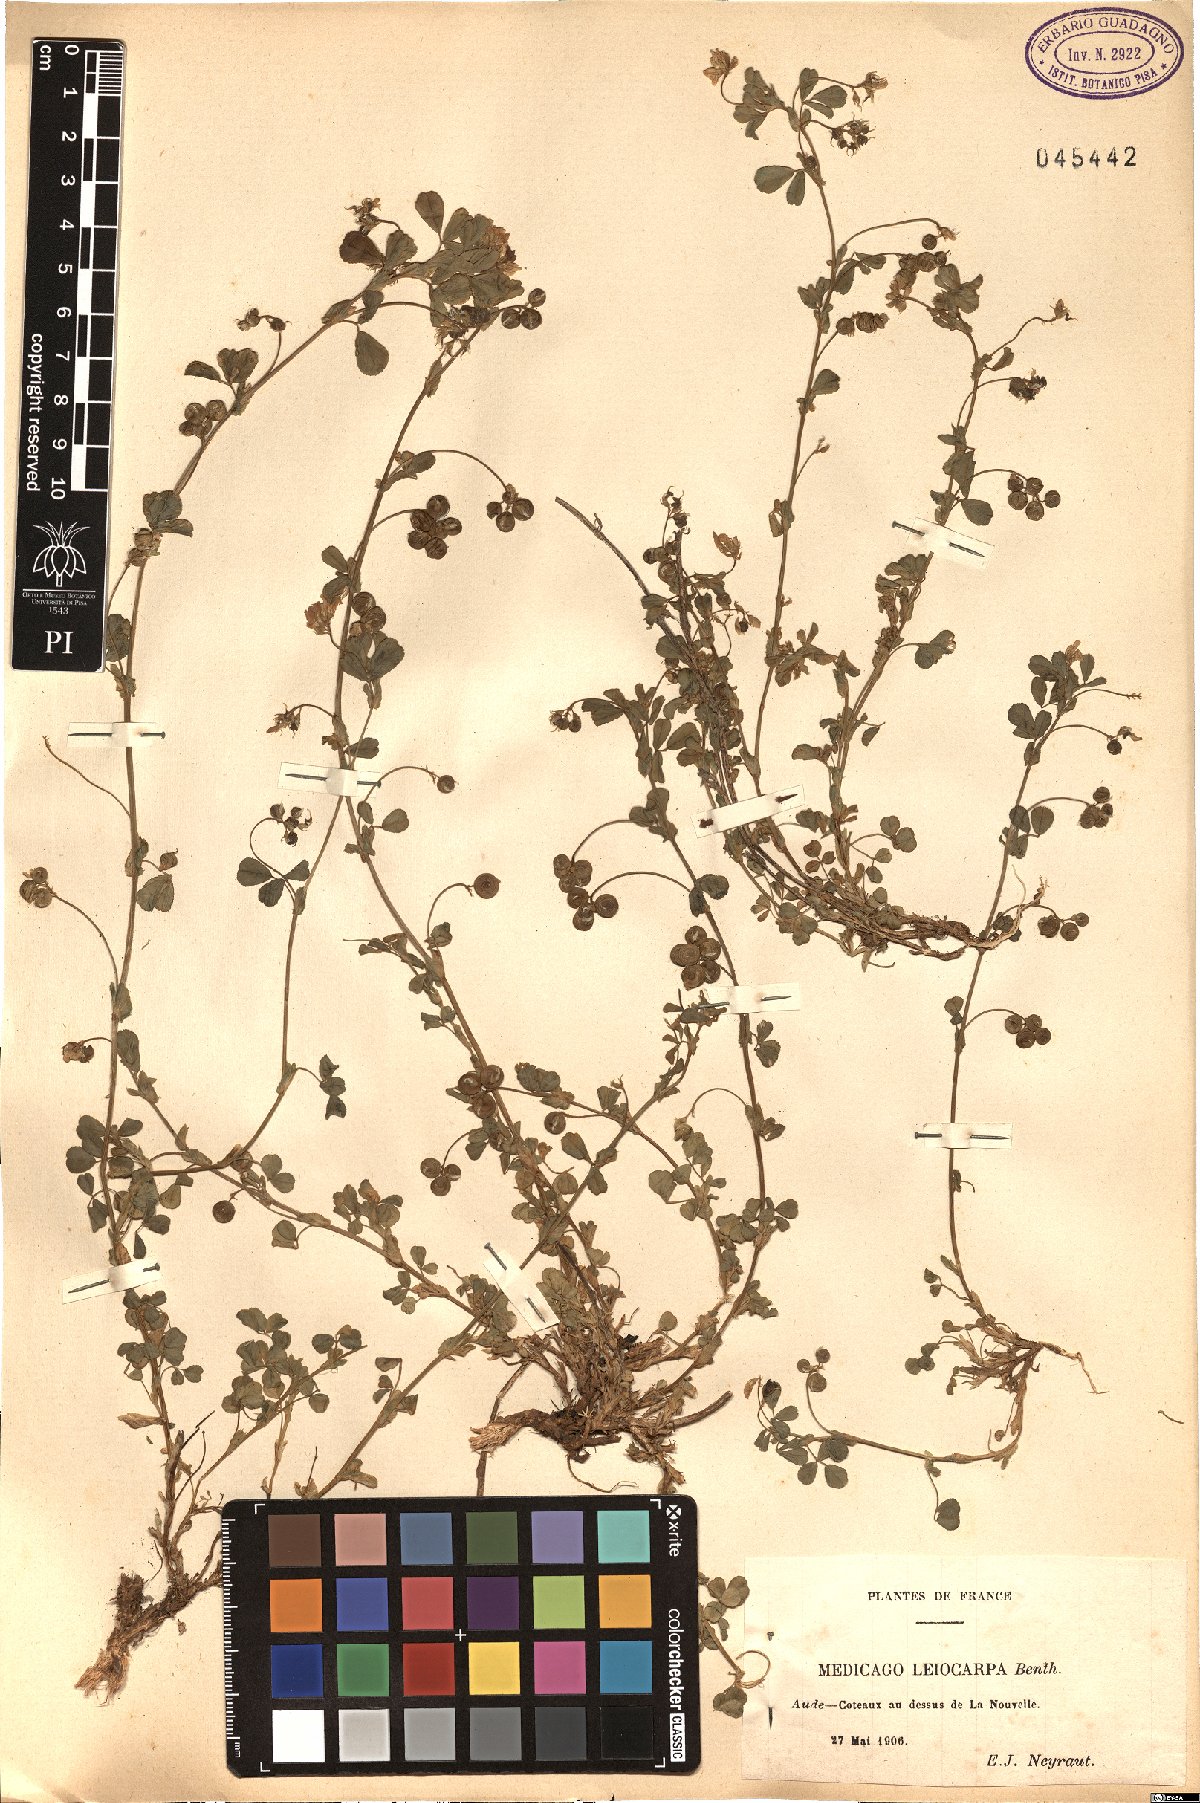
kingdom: Plantae
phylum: Tracheophyta
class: Magnoliopsida
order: Fabales
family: Fabaceae
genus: Medicago
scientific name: Medicago suffruticosa
